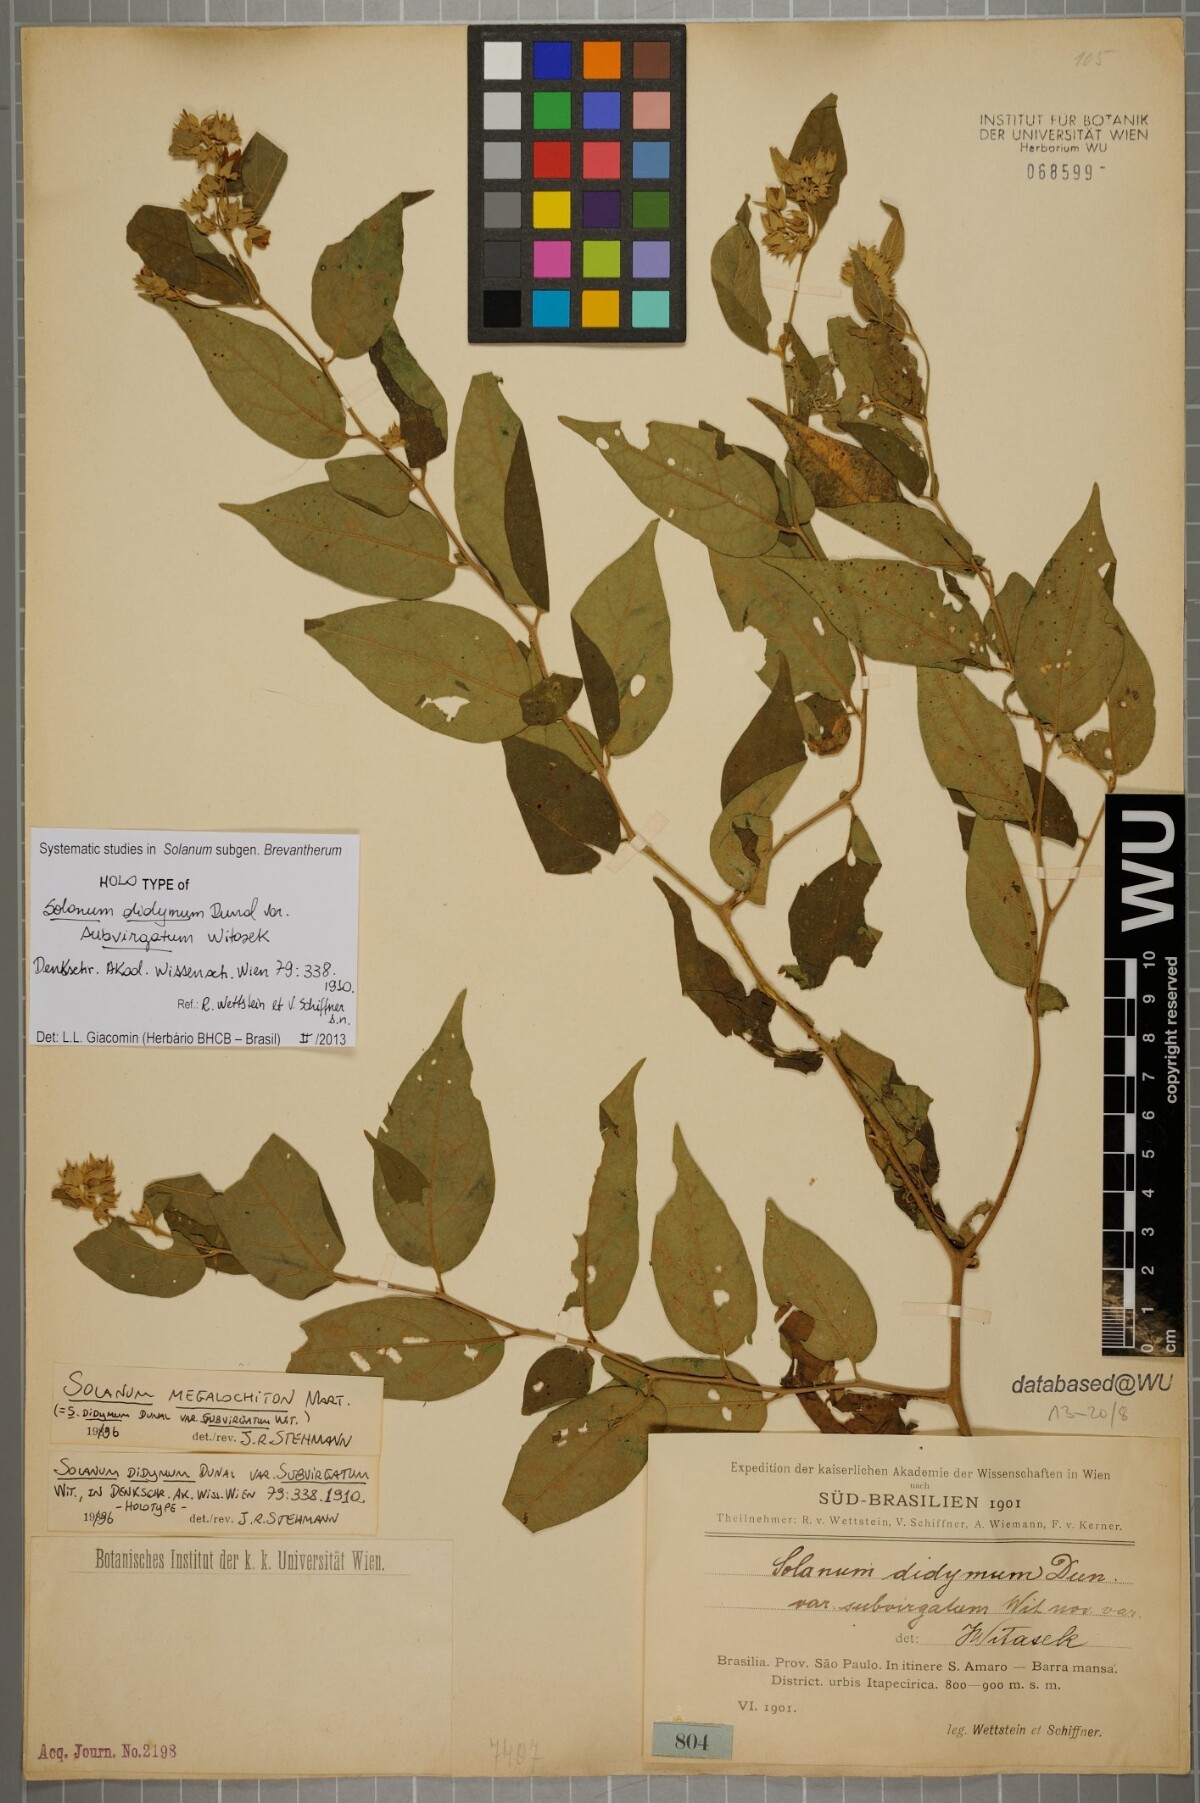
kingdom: Plantae
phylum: Tracheophyta
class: Magnoliopsida
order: Solanales
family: Solanaceae
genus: Solanum
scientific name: Solanum didymum
